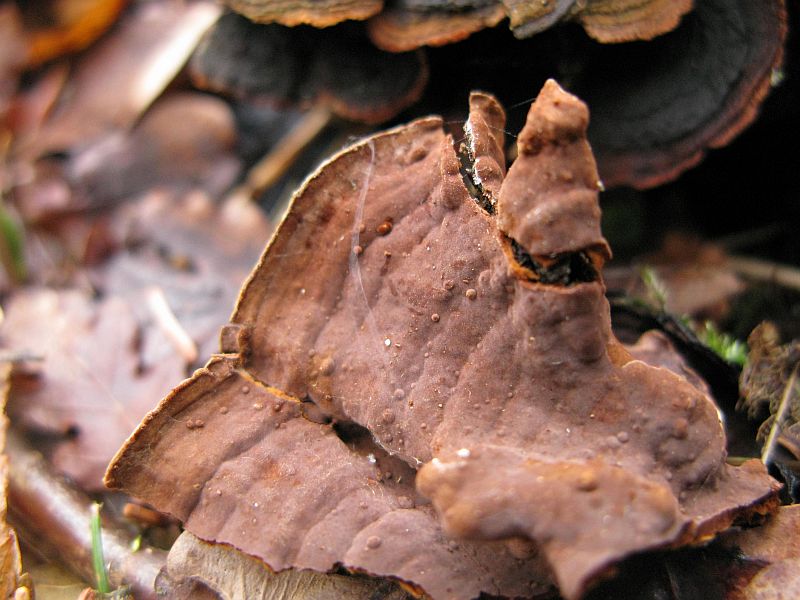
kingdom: Fungi
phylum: Basidiomycota
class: Agaricomycetes
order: Hymenochaetales
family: Hymenochaetaceae
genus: Hymenochaete
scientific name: Hymenochaete rubiginosa
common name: stiv ruslædersvamp
